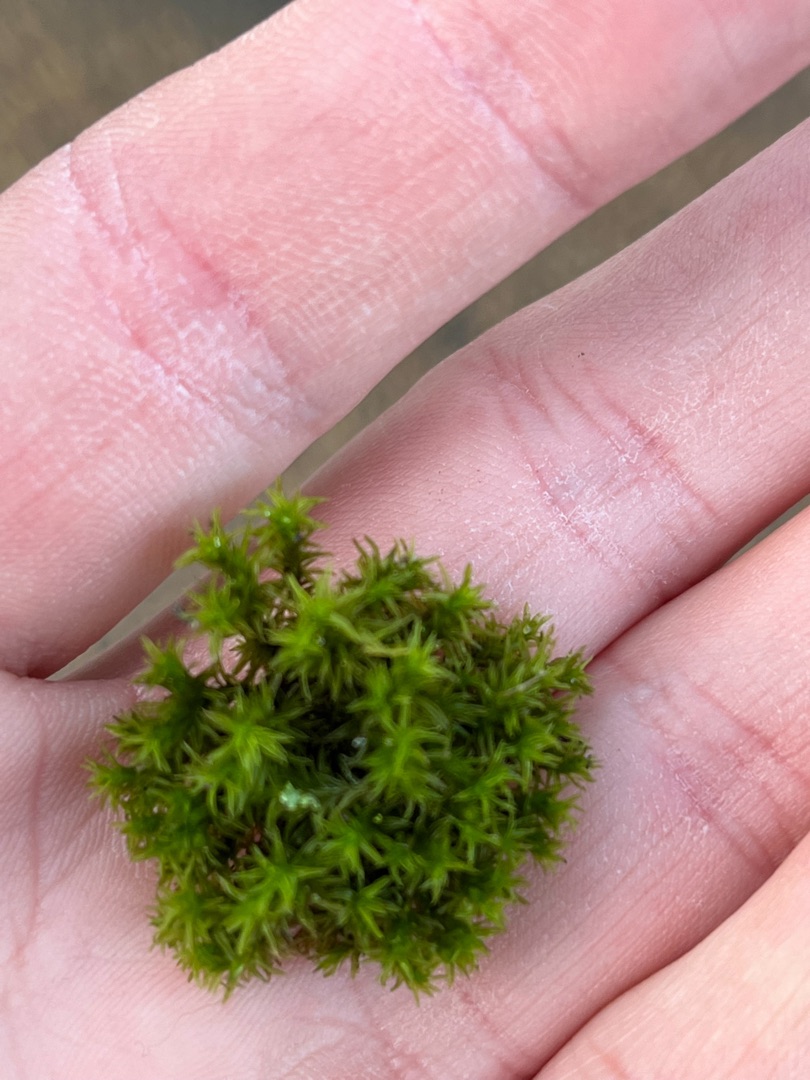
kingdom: Plantae
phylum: Bryophyta
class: Bryopsida
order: Orthotrichales
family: Orthotrichaceae
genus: Orthotrichum
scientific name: Orthotrichum
